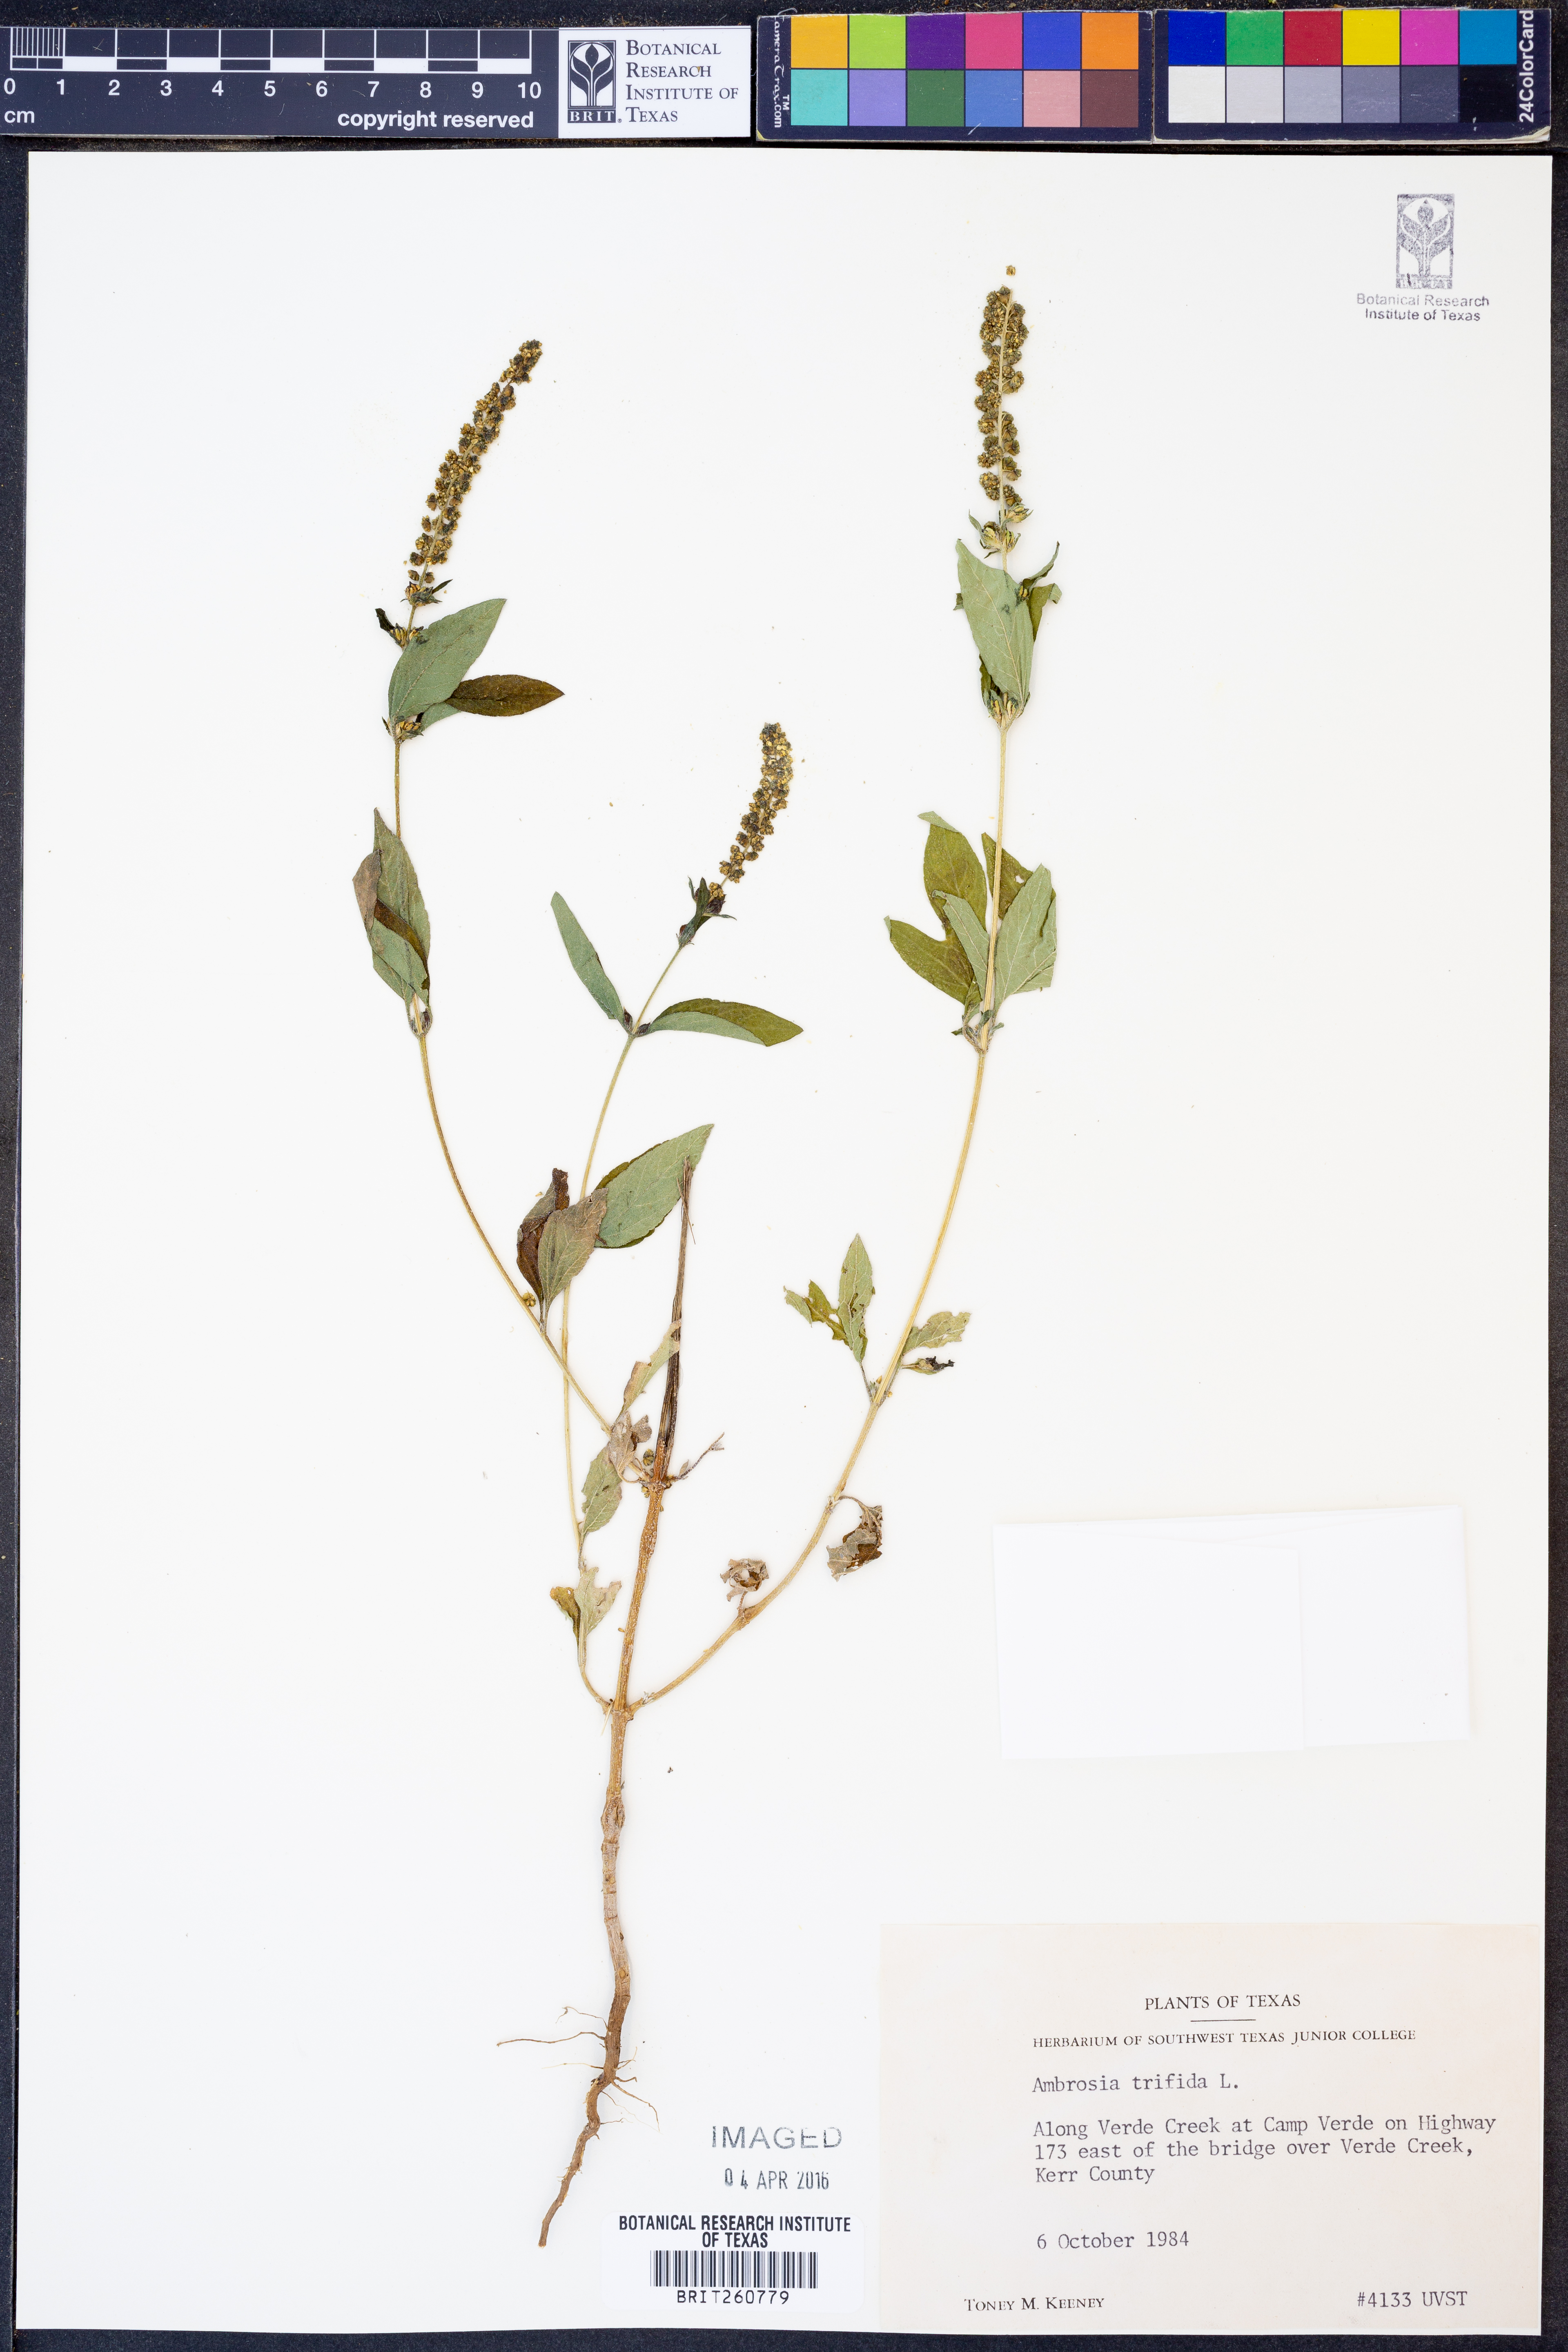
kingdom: Plantae
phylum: Tracheophyta
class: Magnoliopsida
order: Asterales
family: Asteraceae
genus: Ambrosia
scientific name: Ambrosia trifida
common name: Giant ragweed
